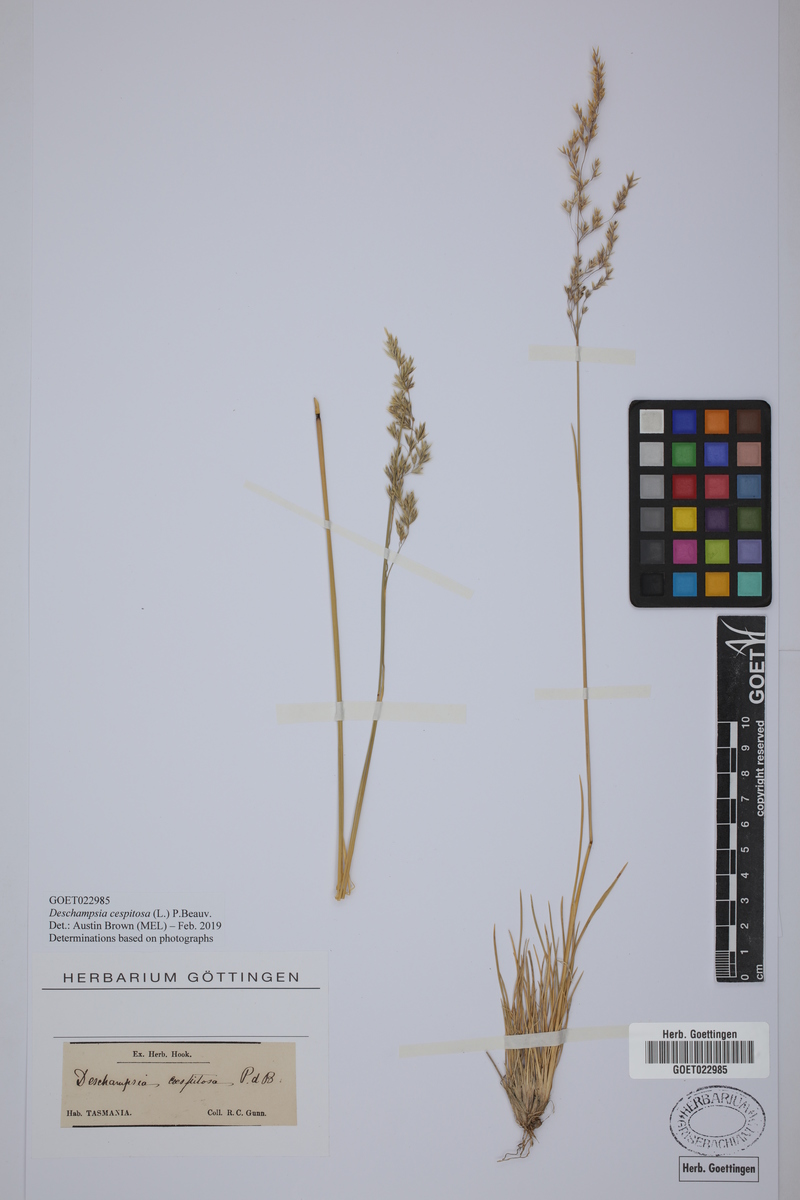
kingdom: Plantae
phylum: Tracheophyta
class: Liliopsida
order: Poales
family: Poaceae
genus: Deschampsia
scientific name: Deschampsia cespitosa
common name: Tufted hair-grass
